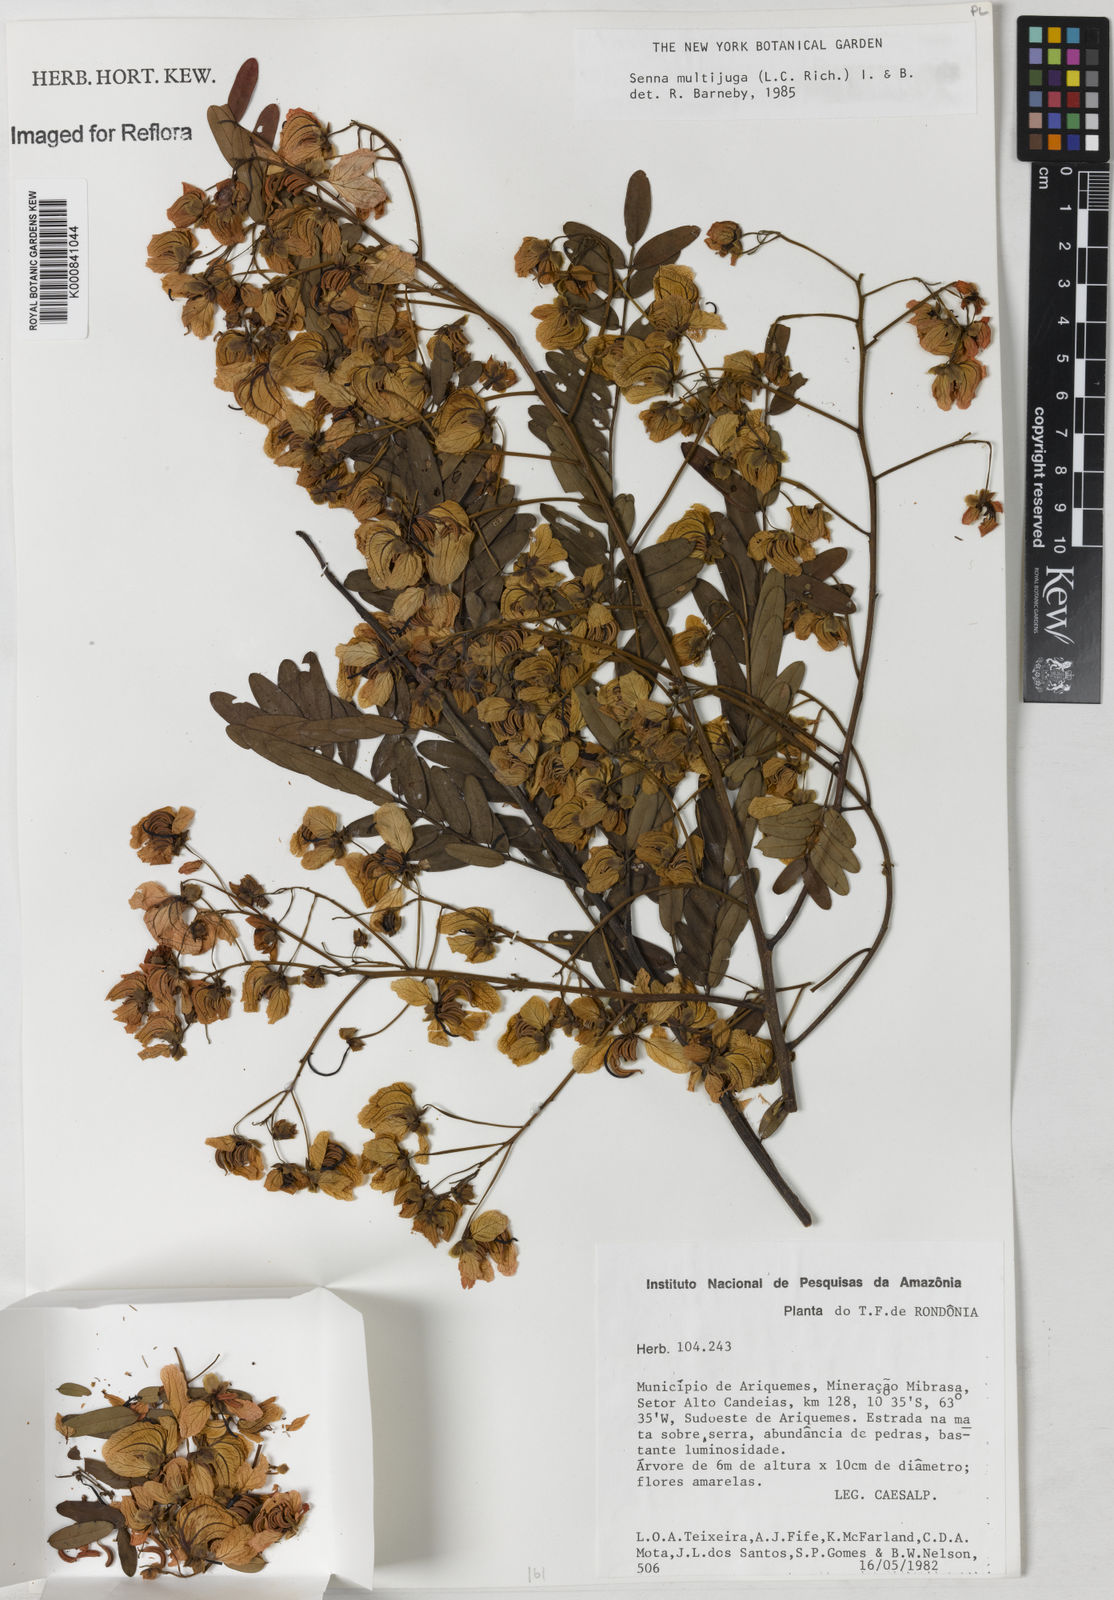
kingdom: Plantae
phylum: Tracheophyta
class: Magnoliopsida
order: Fabales
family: Fabaceae
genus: Senna
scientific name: Senna multijuga
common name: False sicklepod
